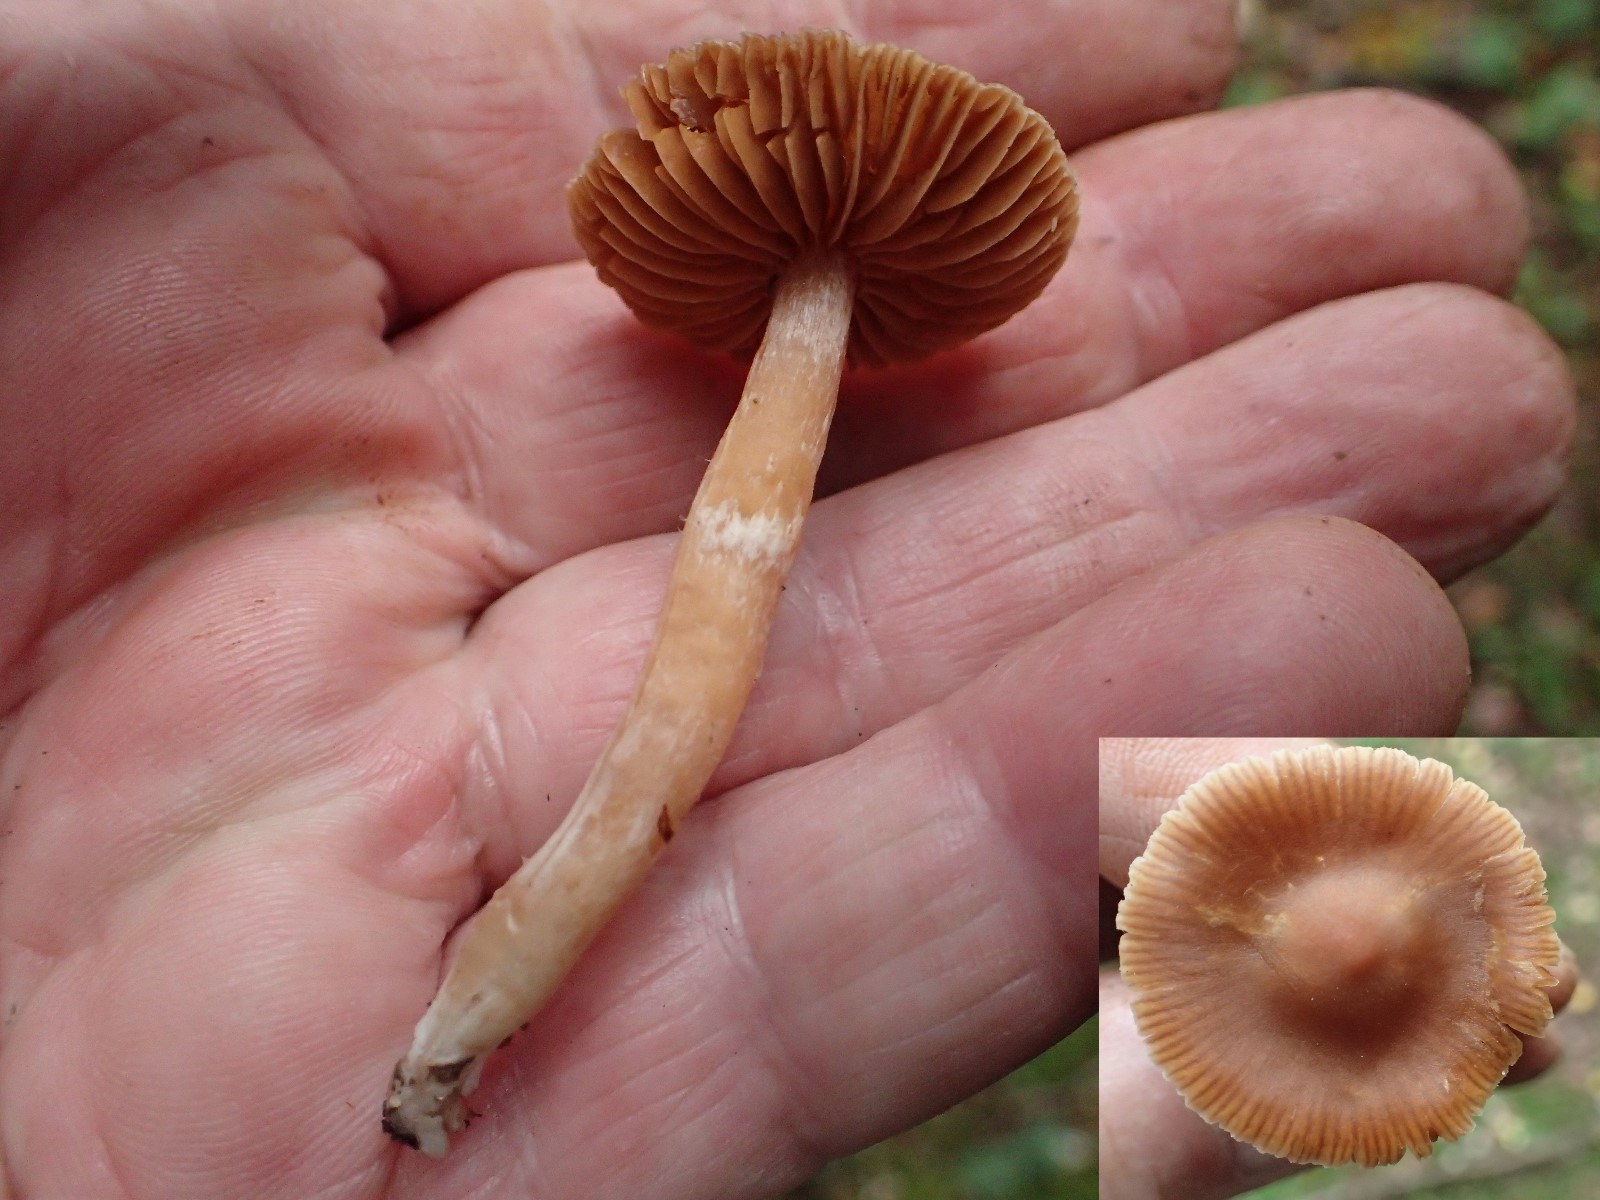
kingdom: Fungi
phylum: Basidiomycota
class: Agaricomycetes
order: Agaricales
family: Cortinariaceae
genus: Cortinarius
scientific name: Cortinarius
